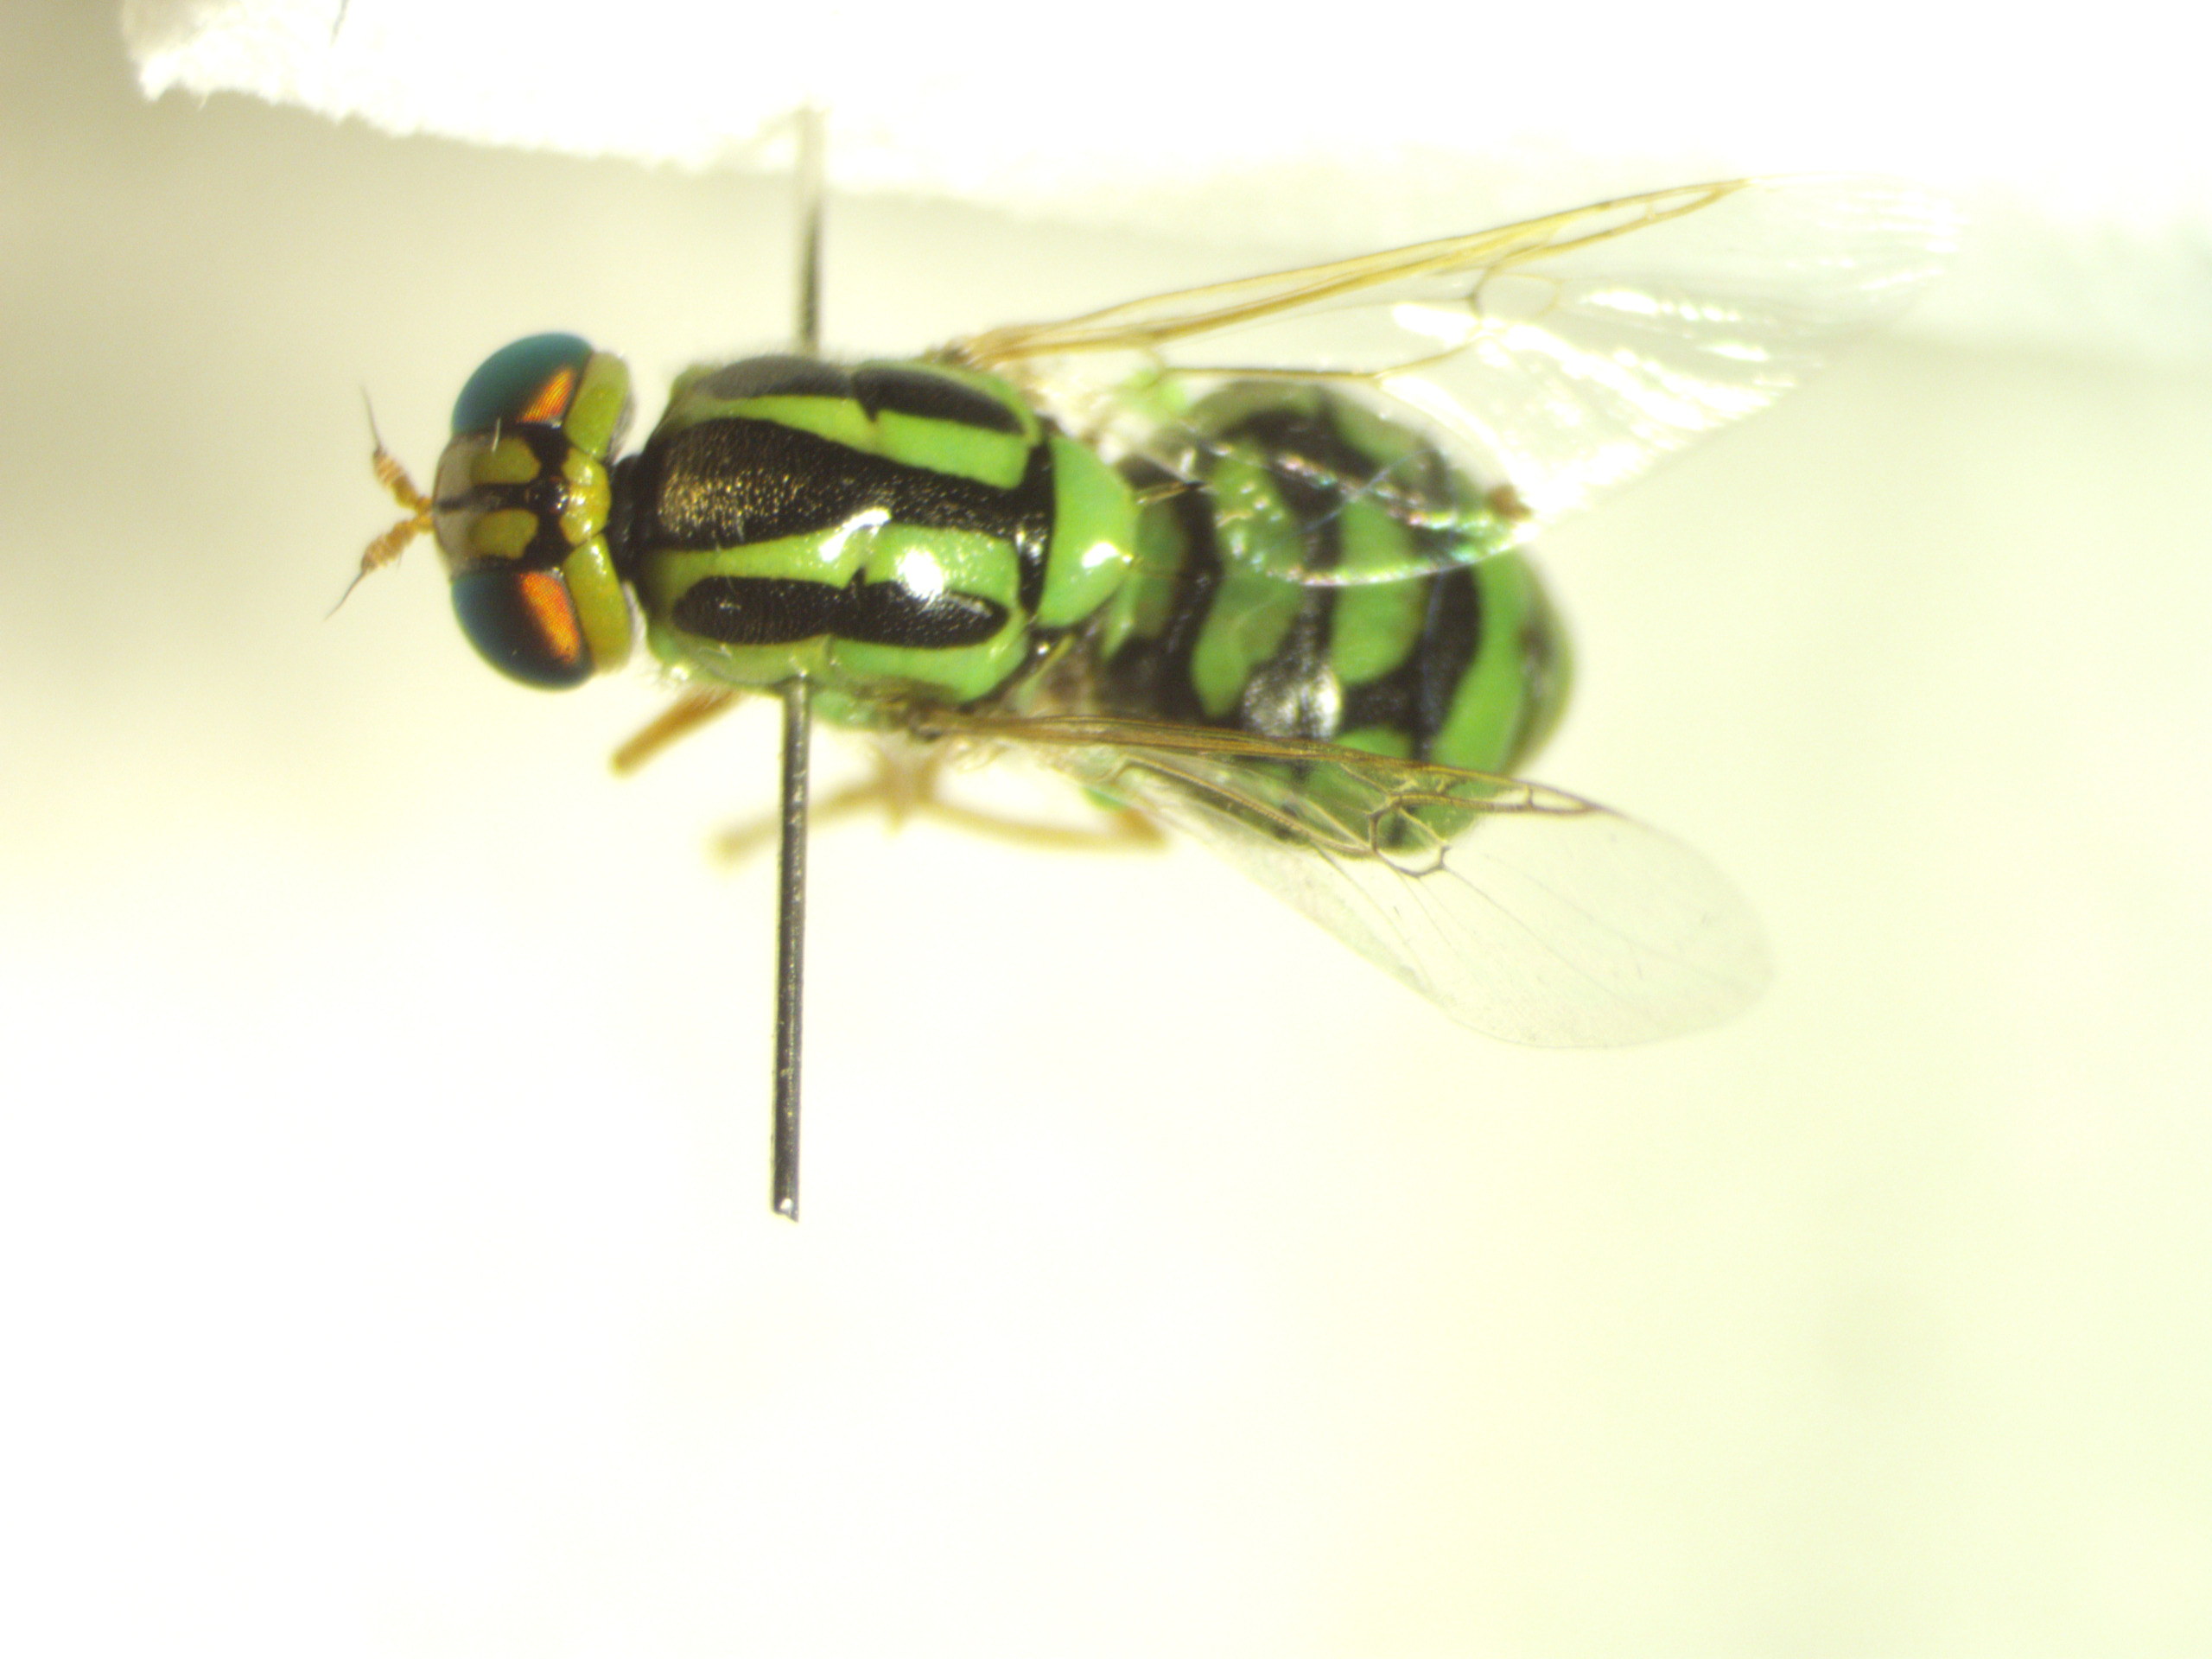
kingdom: Animalia
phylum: Arthropoda
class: Insecta
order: Diptera
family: Stratiomyidae
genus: Oxycera
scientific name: Oxycera trilineata
